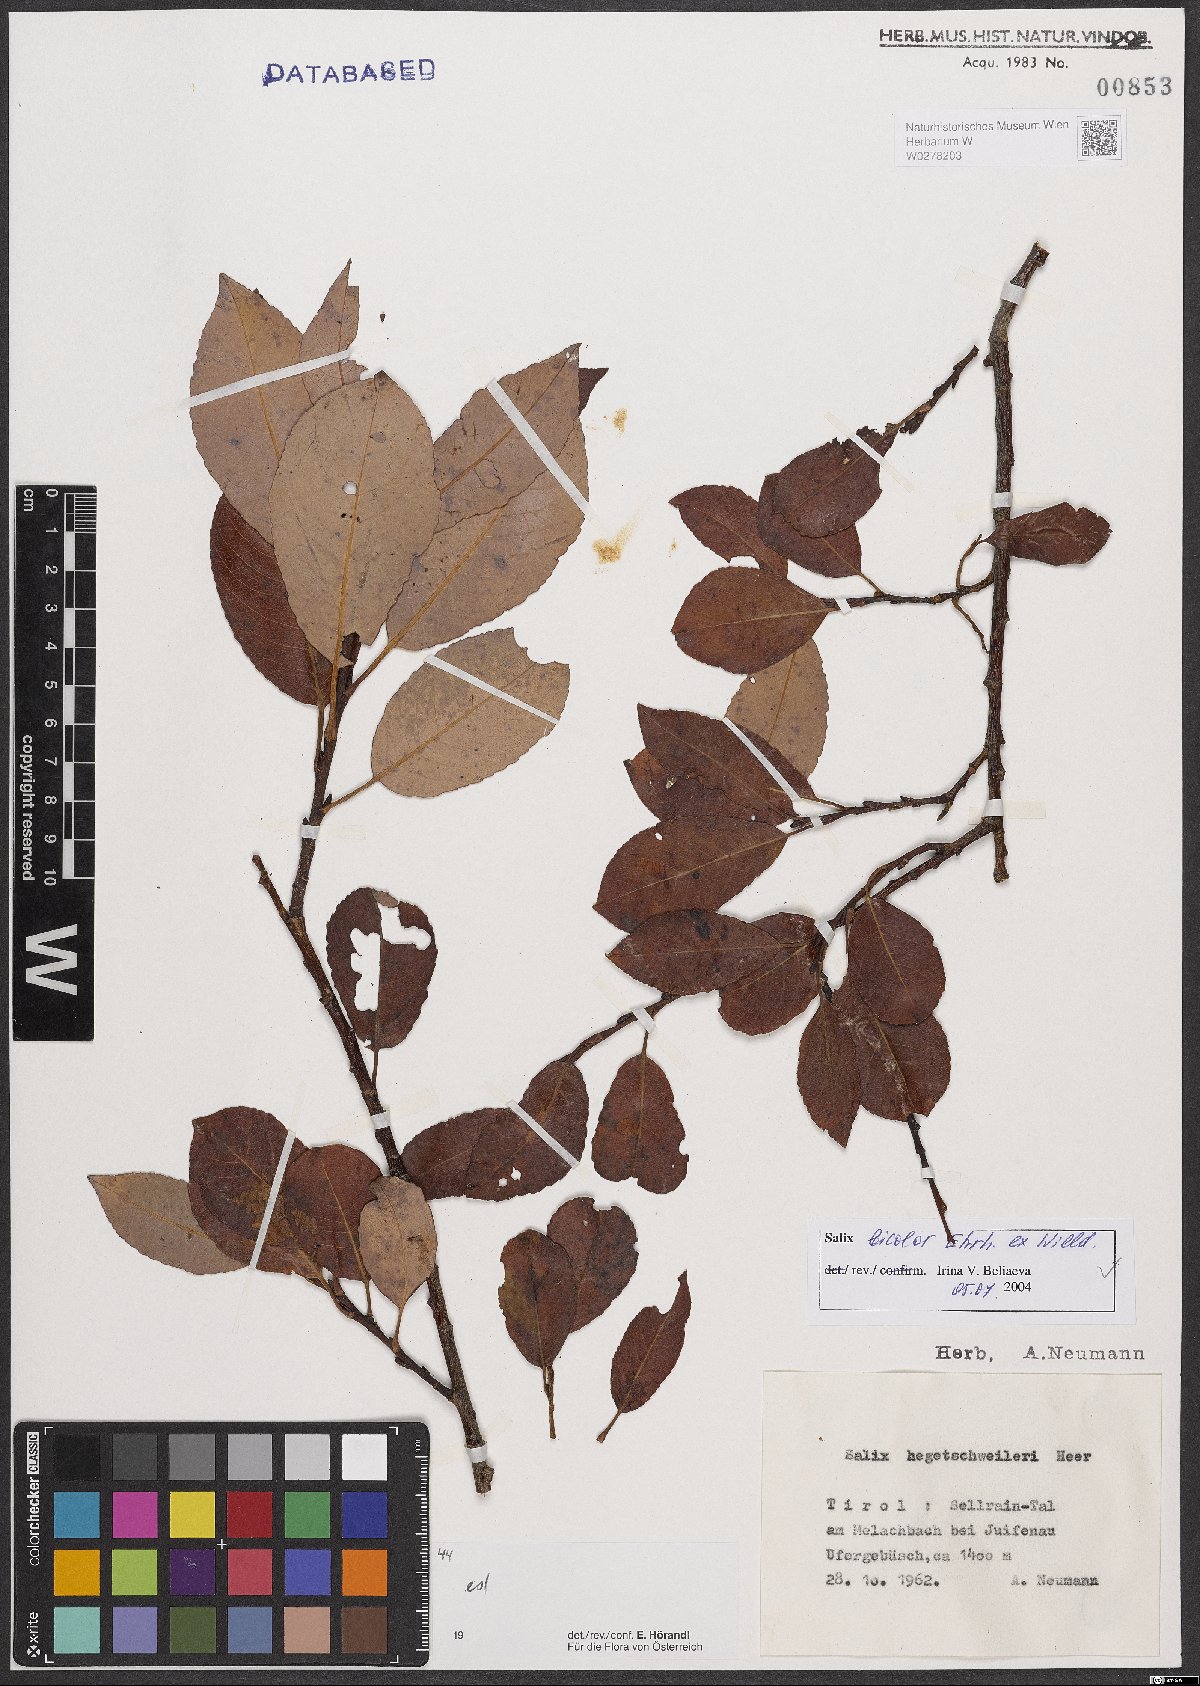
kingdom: Plantae
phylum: Tracheophyta
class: Magnoliopsida
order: Malpighiales
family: Salicaceae
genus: Salix
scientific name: Salix bicolor
